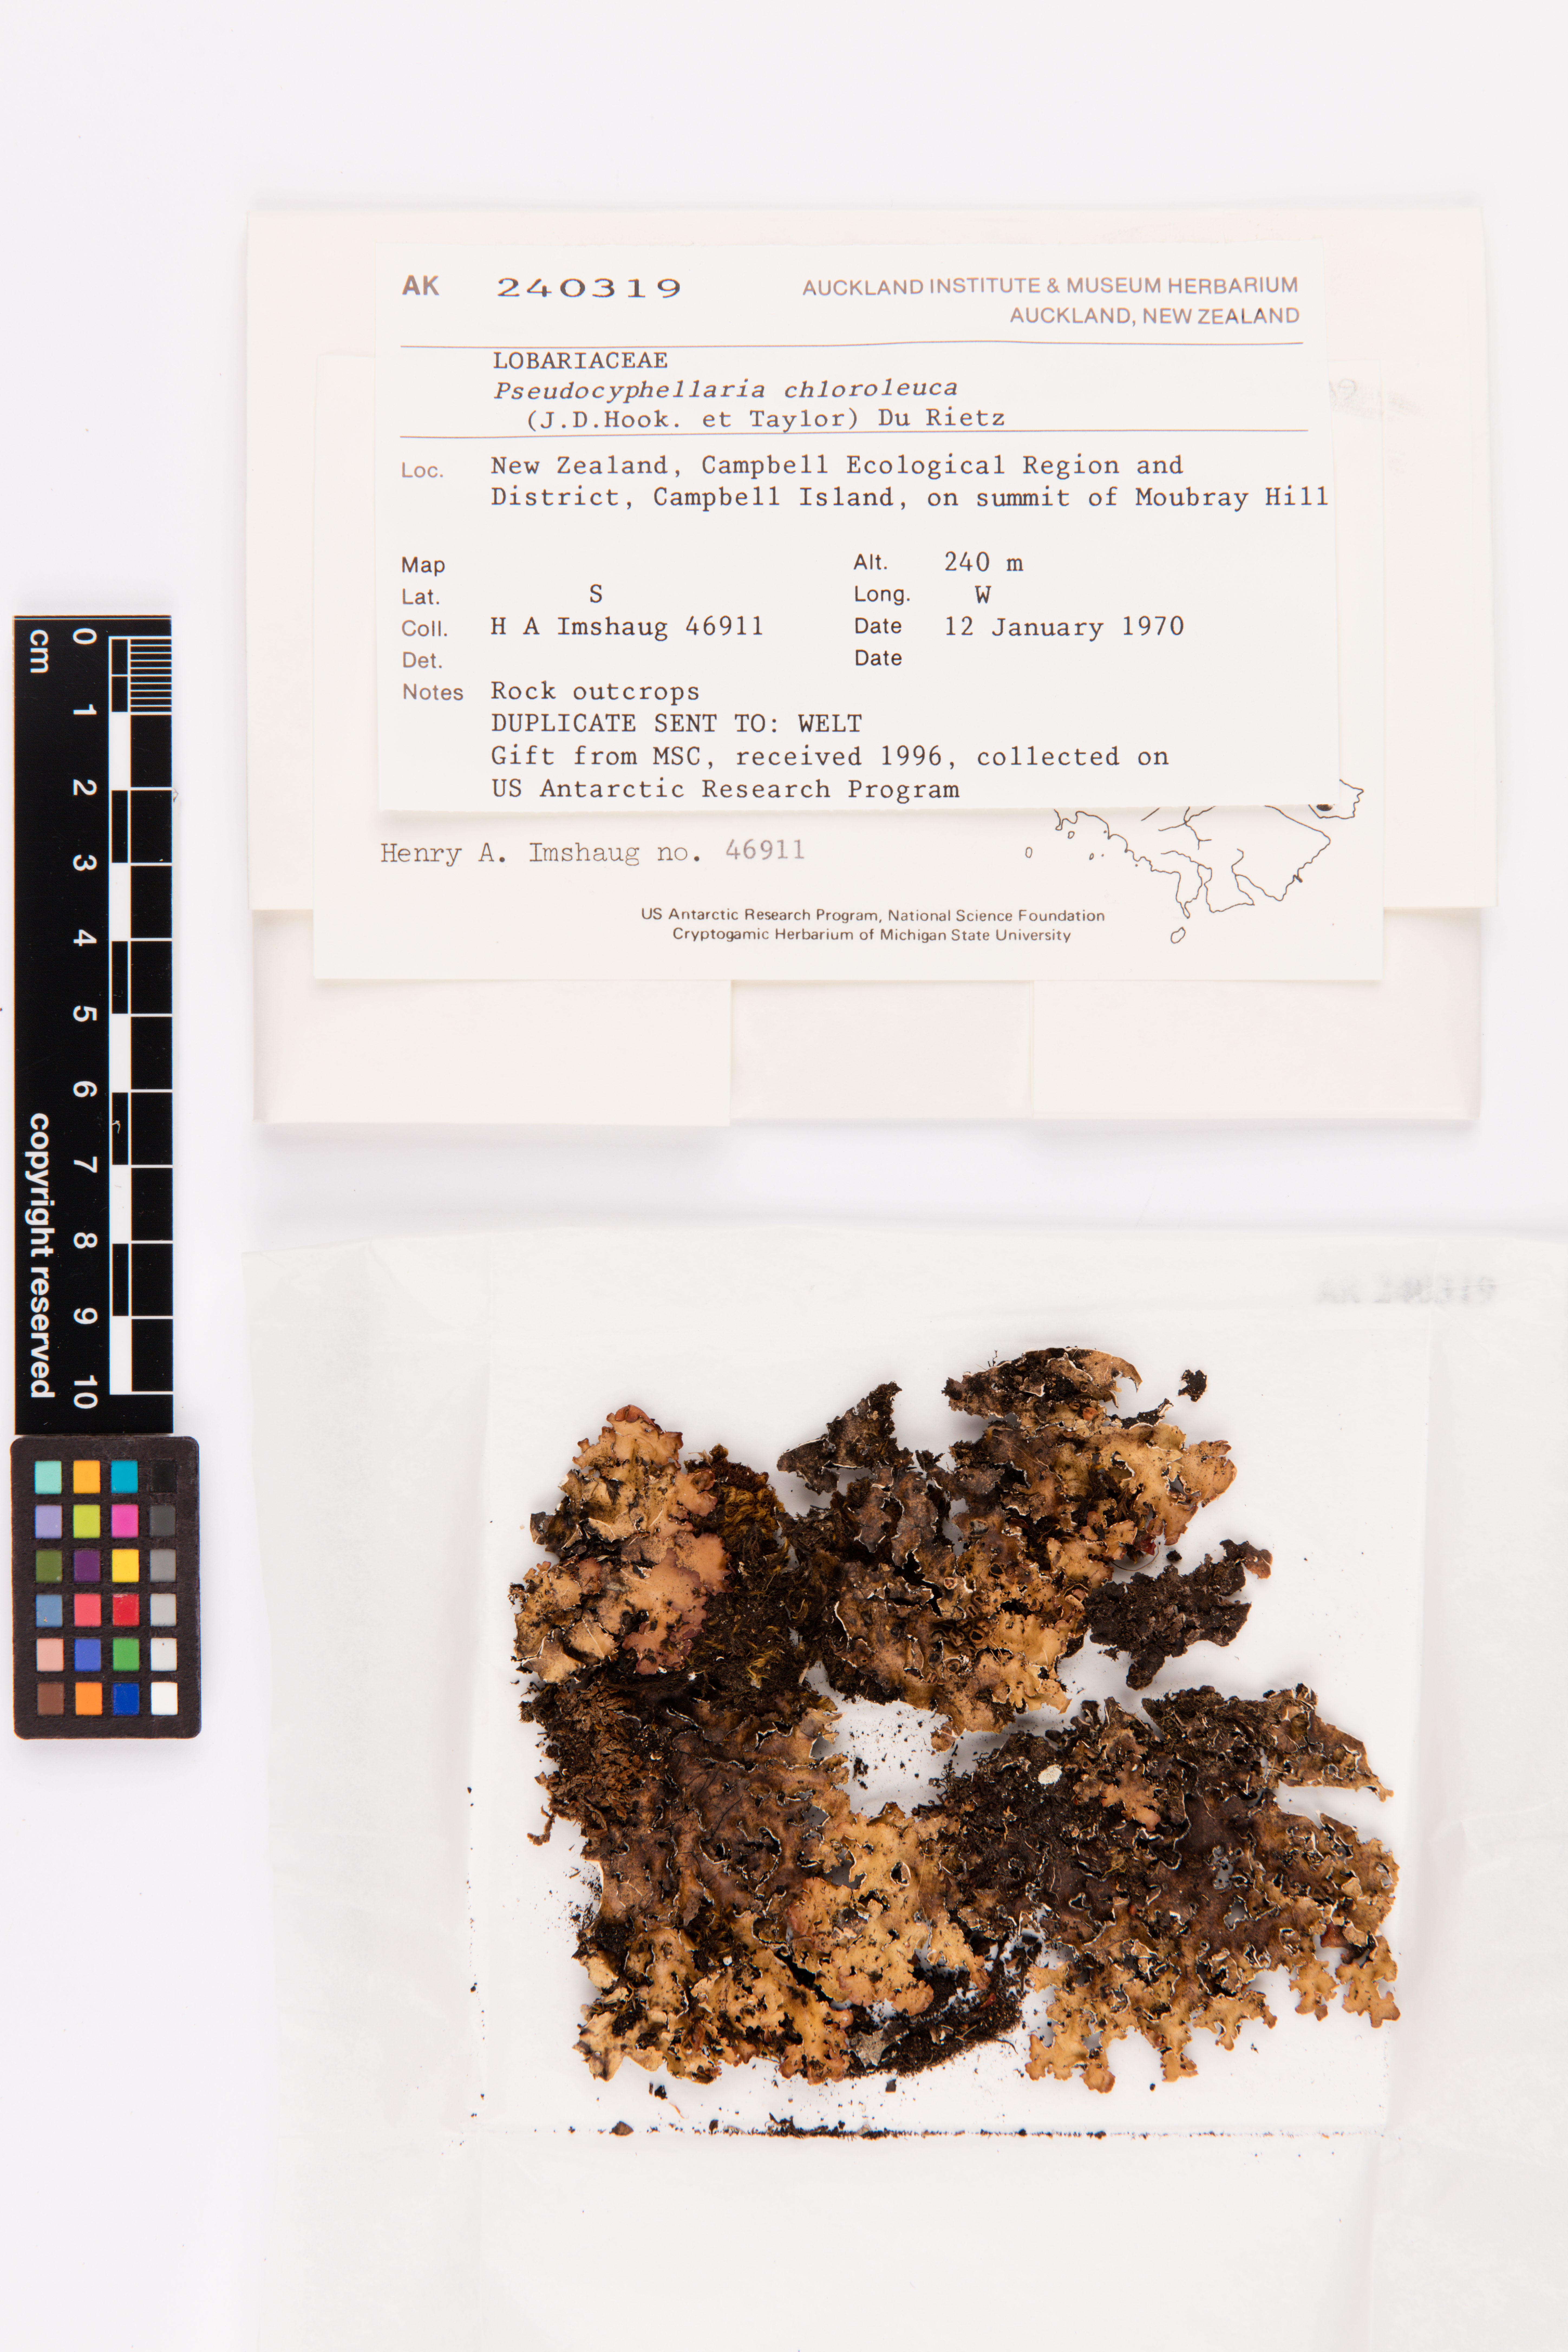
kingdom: Fungi
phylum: Ascomycota
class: Lecanoromycetes
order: Peltigerales
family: Lobariaceae
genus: Pseudocyphellaria
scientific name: Pseudocyphellaria chloroleuca
